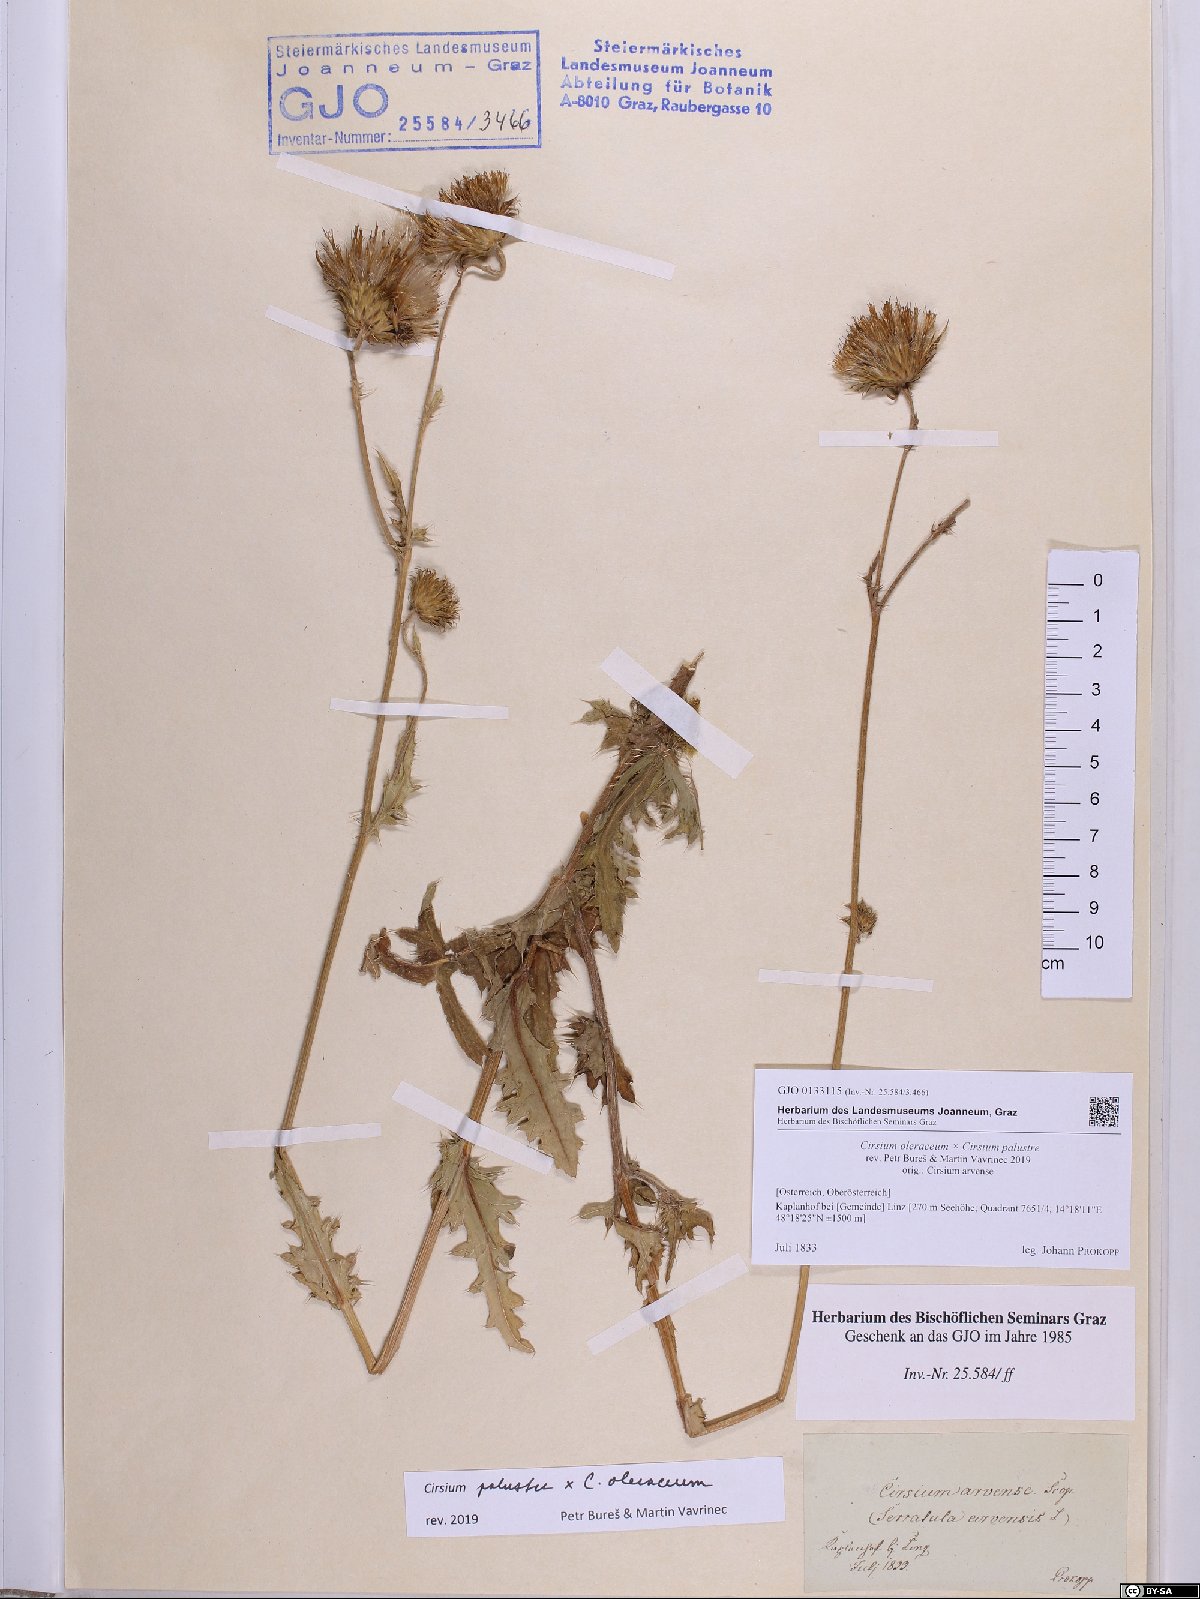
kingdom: Plantae
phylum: Tracheophyta
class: Magnoliopsida
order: Asterales
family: Asteraceae
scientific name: Asteraceae
